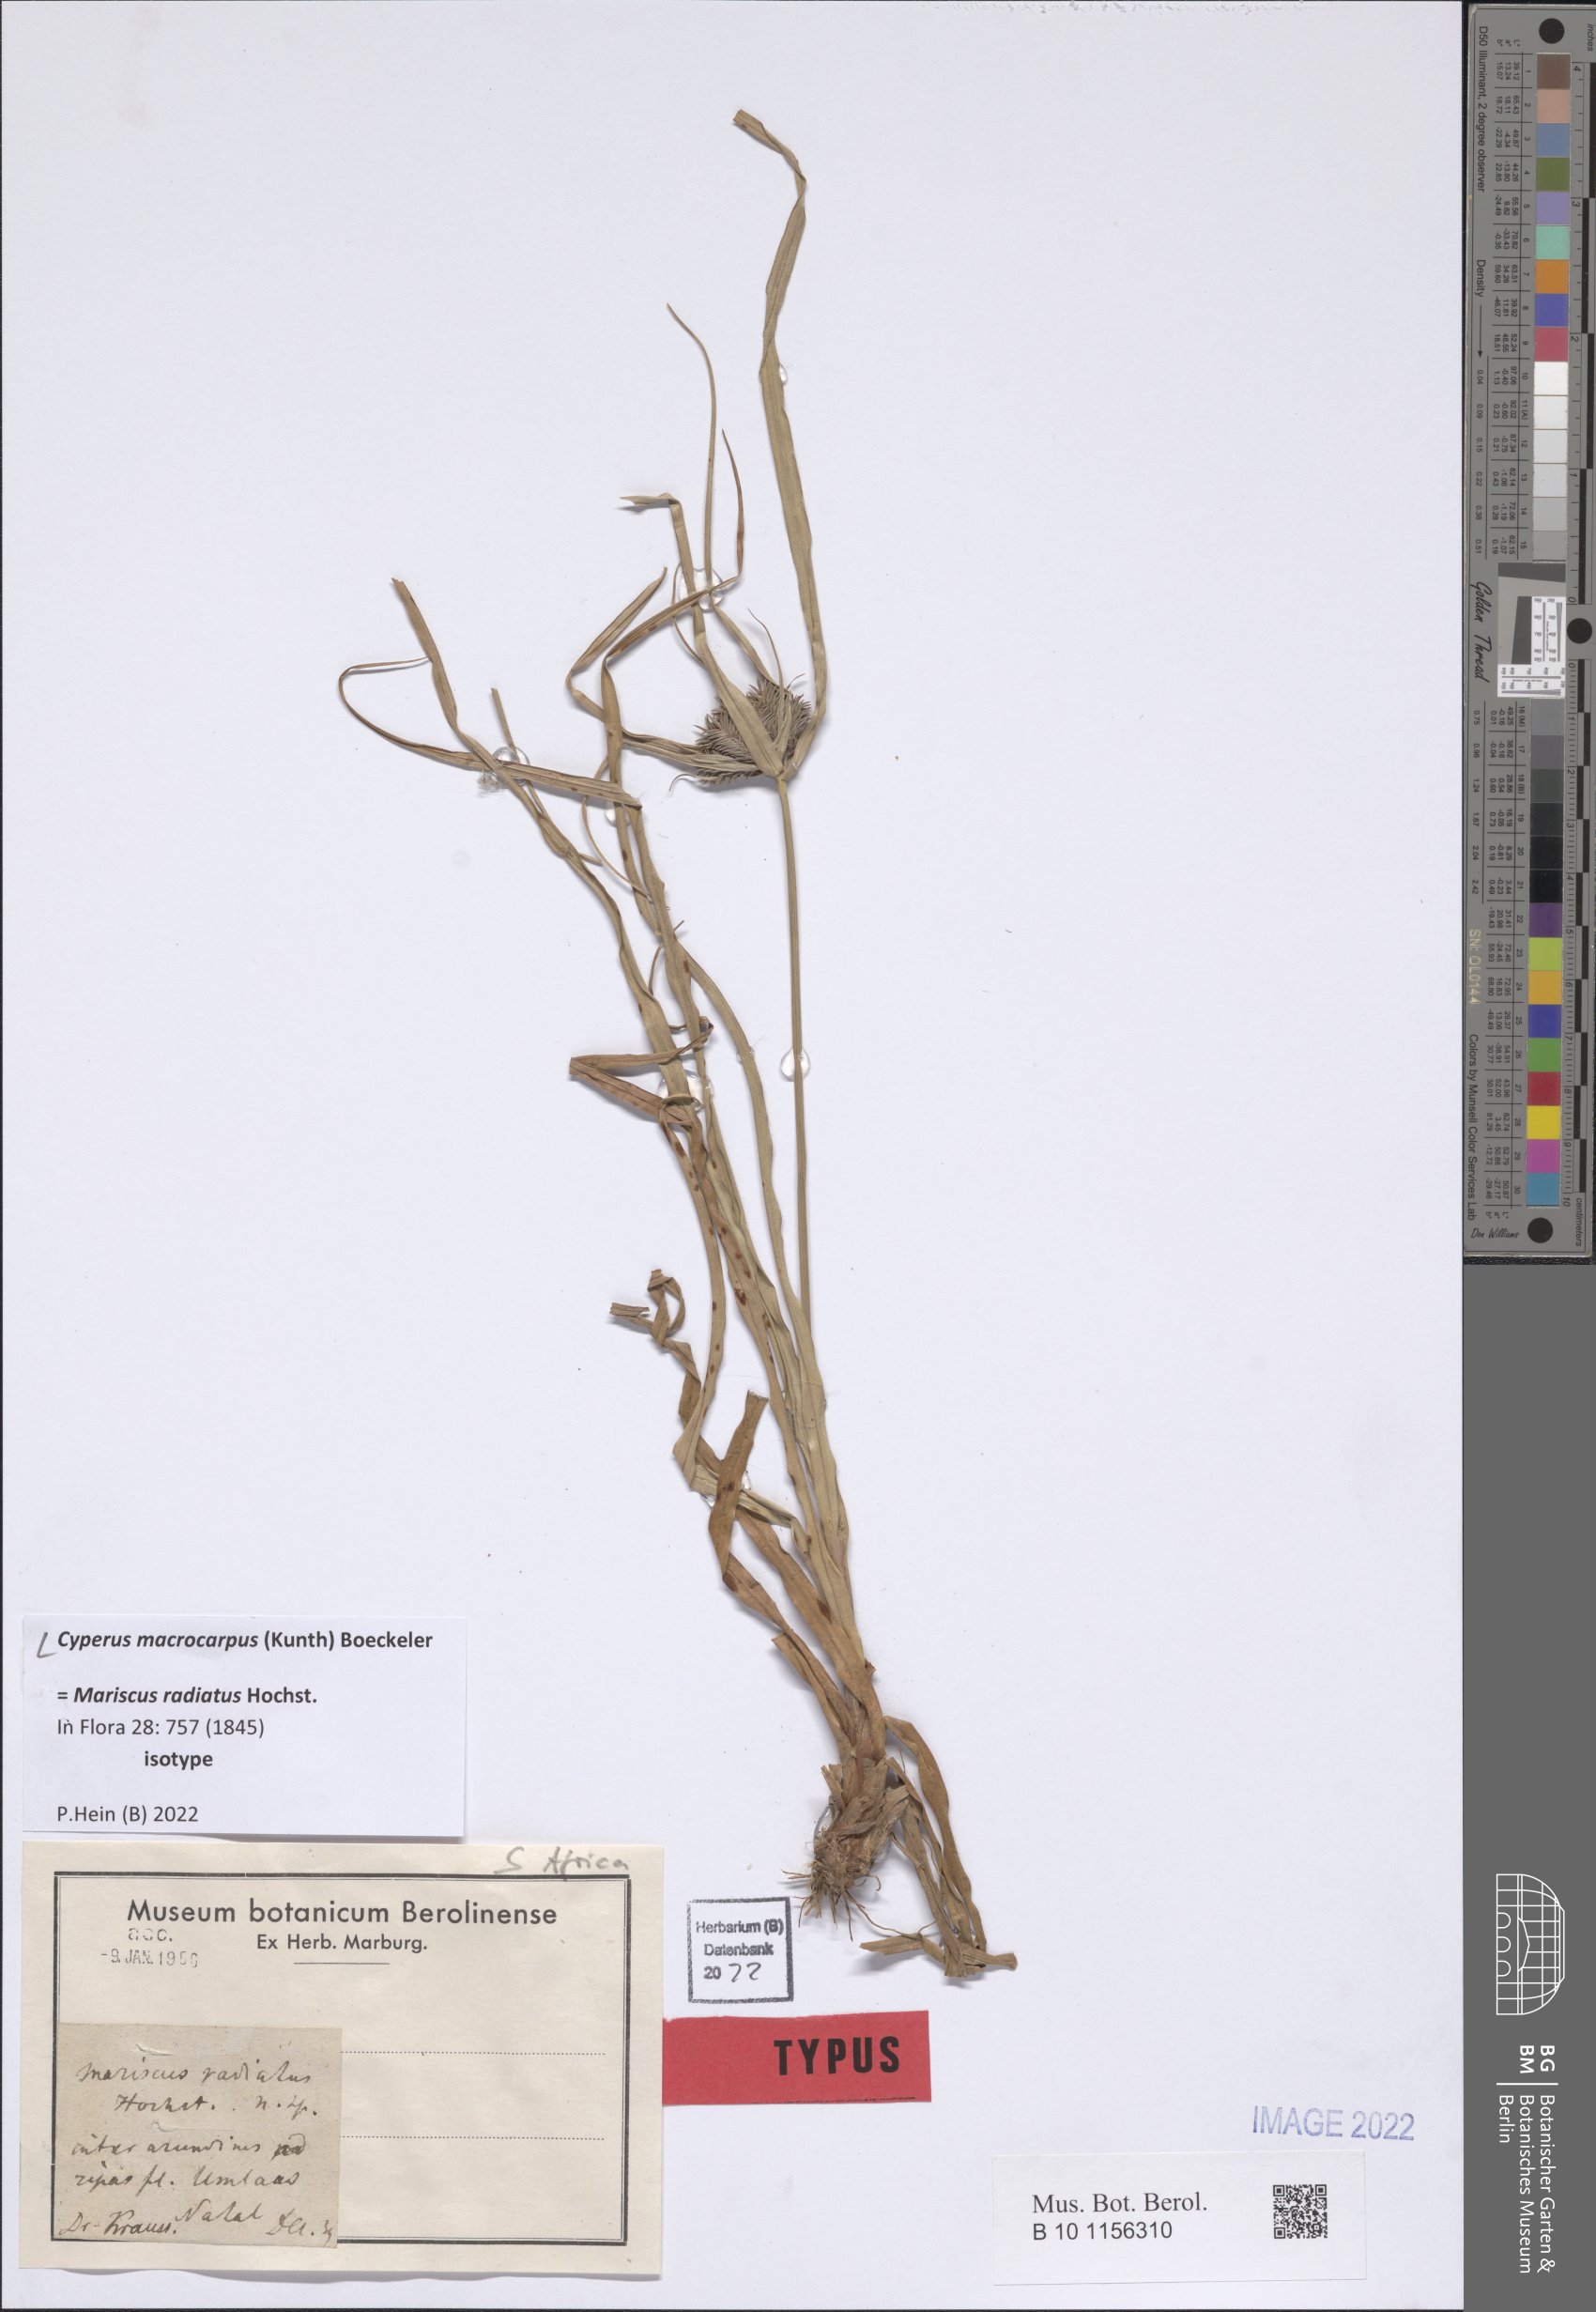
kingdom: Plantae
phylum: Tracheophyta
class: Liliopsida
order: Poales
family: Cyperaceae
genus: Cyperus
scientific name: Cyperus macrocarpus
